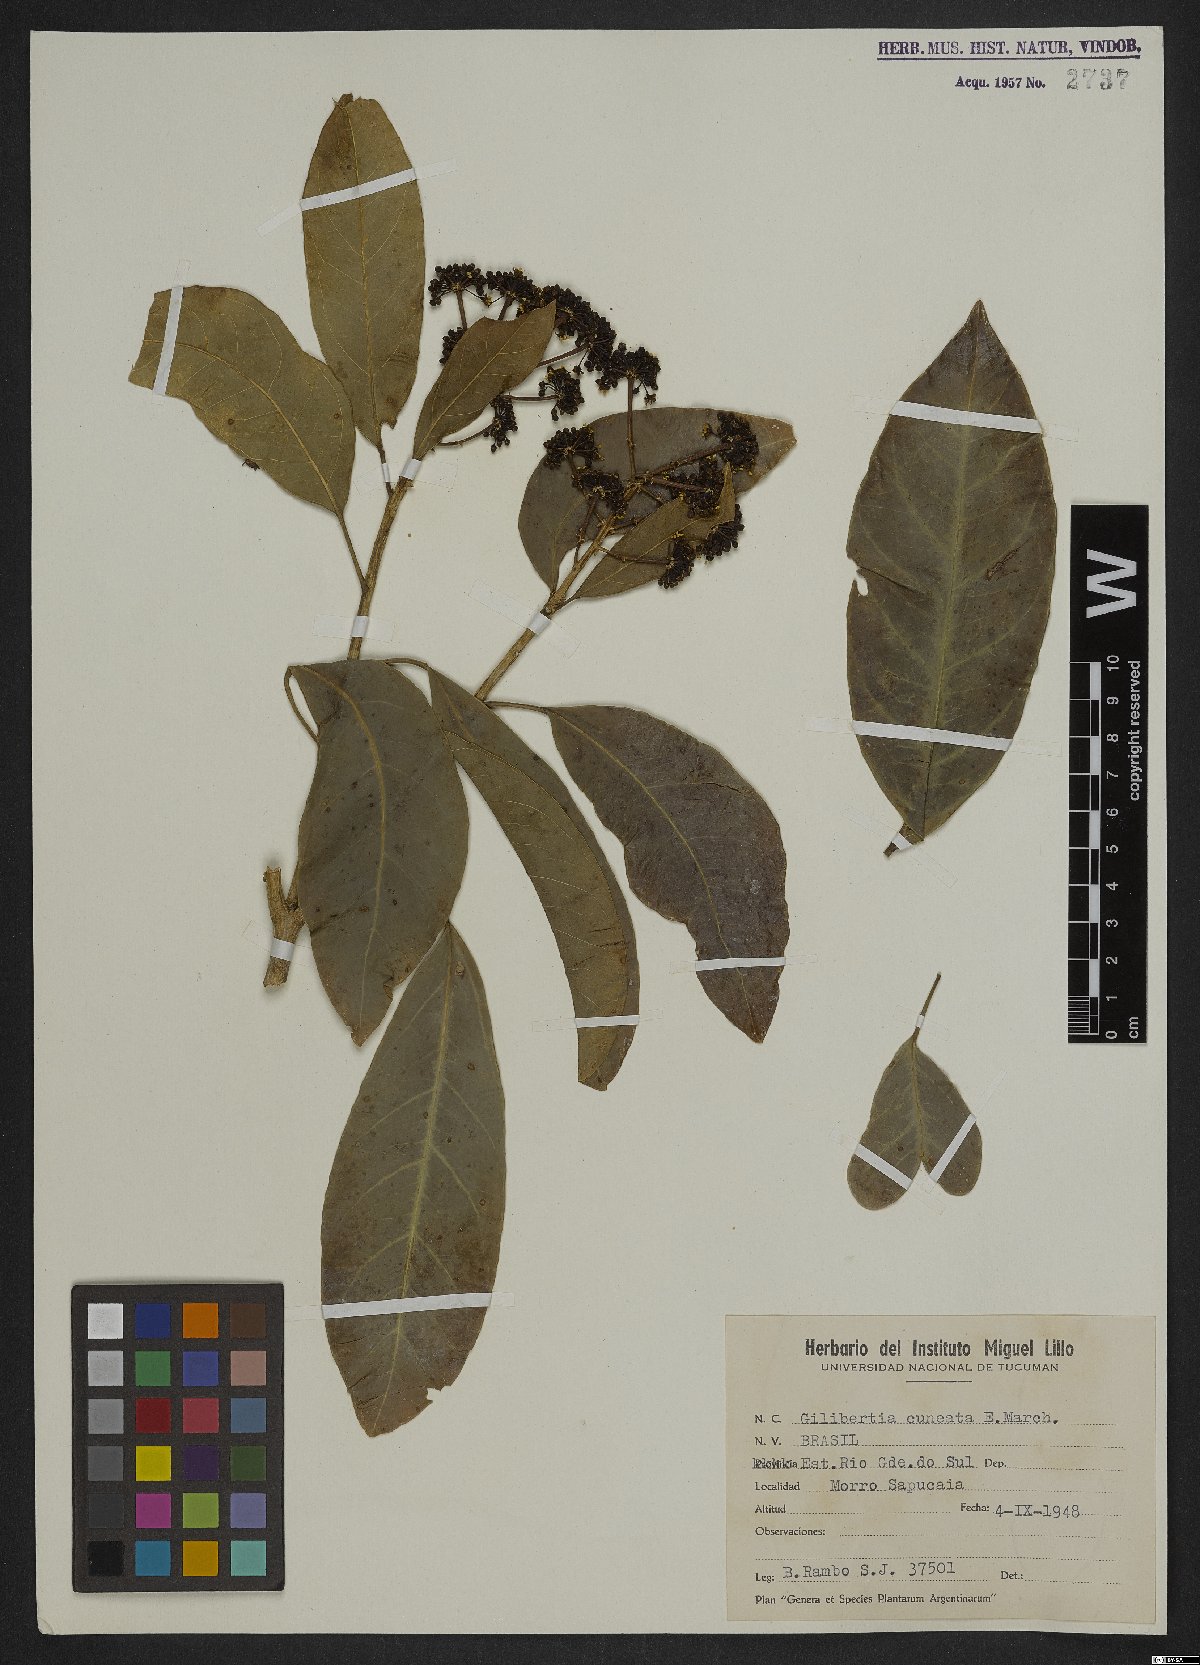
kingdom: Plantae
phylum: Tracheophyta
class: Magnoliopsida
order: Apiales
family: Araliaceae
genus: Dendropanax
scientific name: Dendropanax cuneatus
